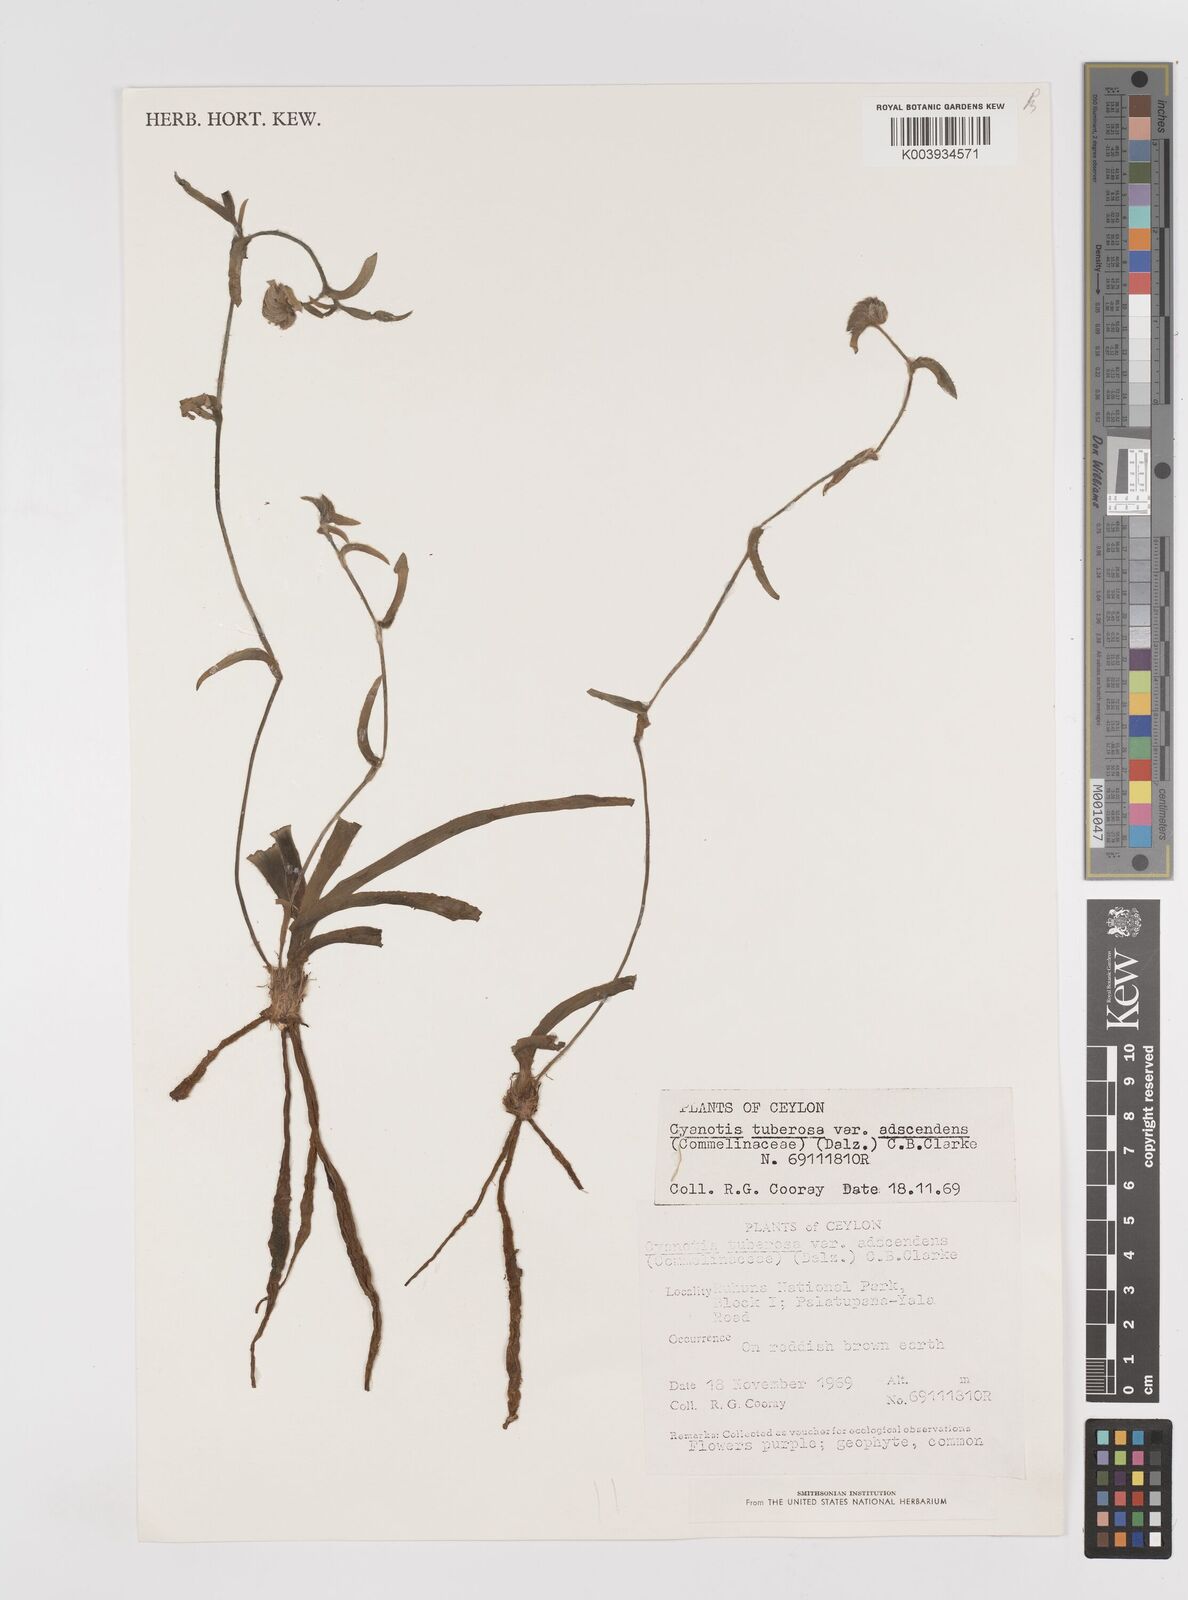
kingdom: Plantae
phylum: Tracheophyta
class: Liliopsida
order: Commelinales
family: Commelinaceae
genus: Cyanotis
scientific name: Cyanotis tuberosa
